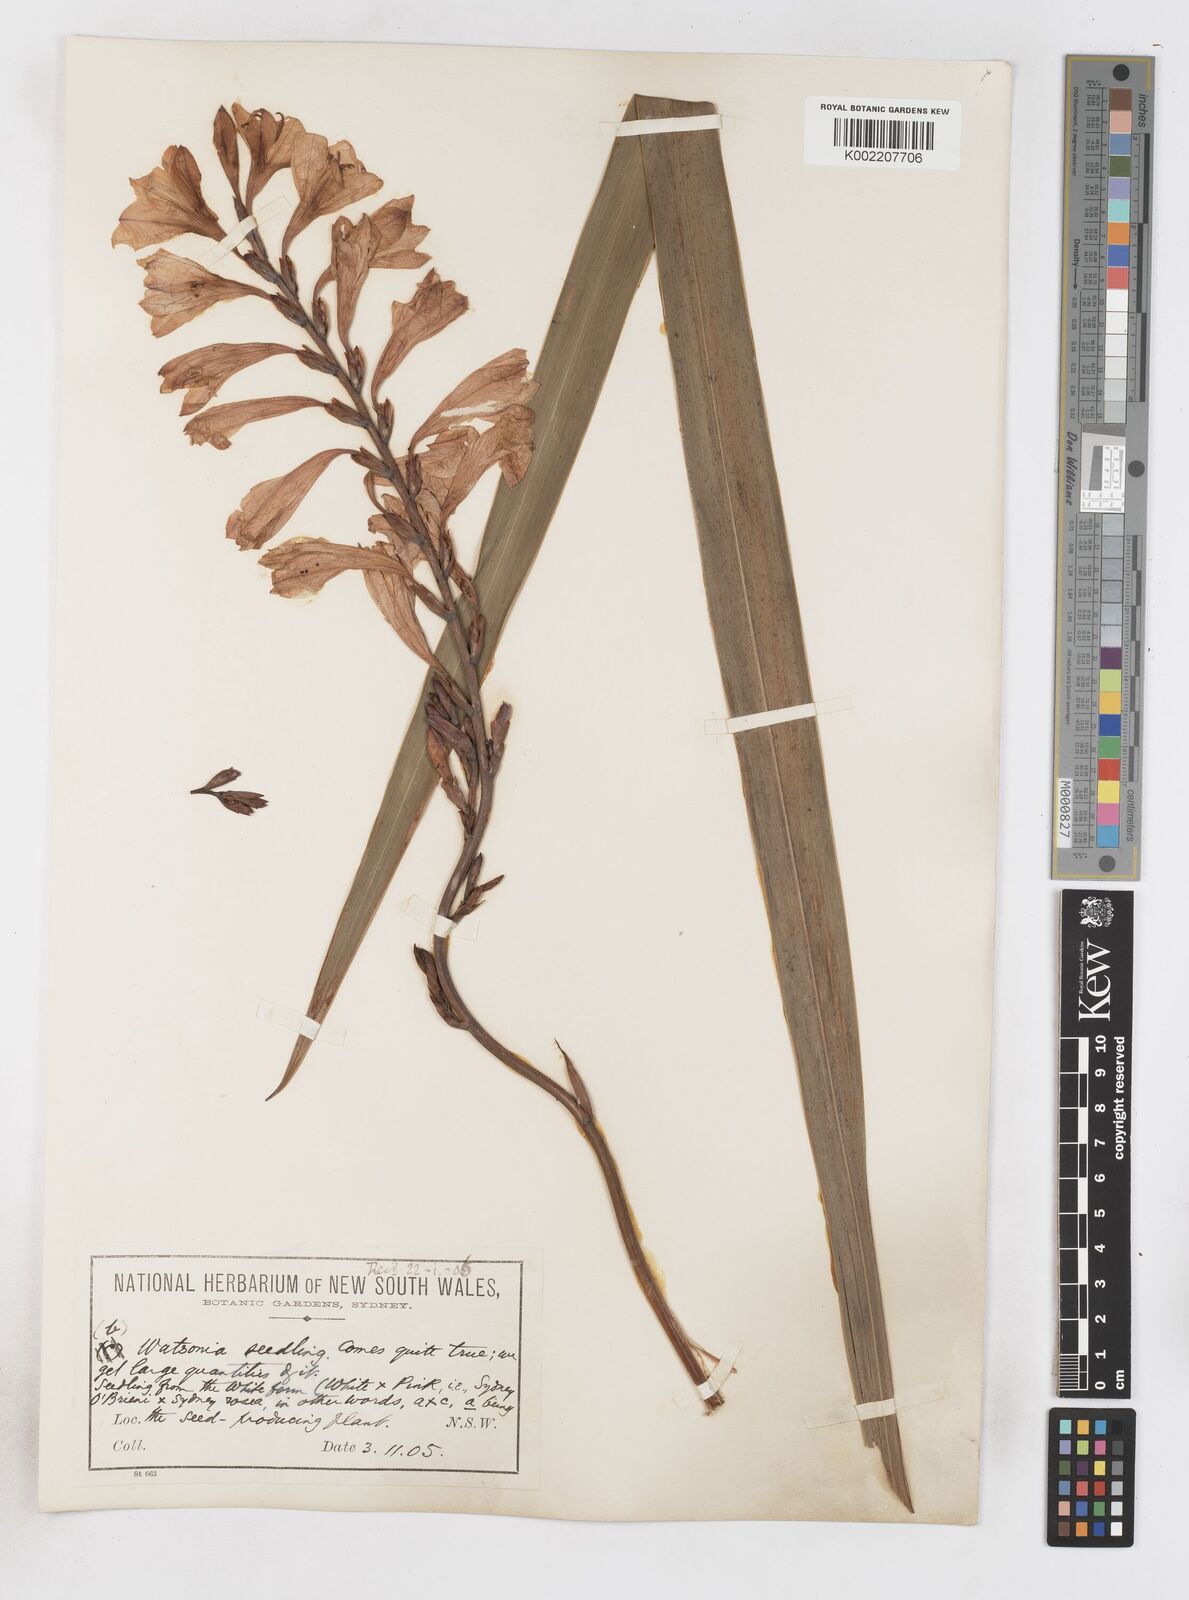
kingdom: Plantae
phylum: Tracheophyta
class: Liliopsida
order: Asparagales
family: Iridaceae
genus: Watsonia
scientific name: Watsonia borbonica
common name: Bugle-lily
